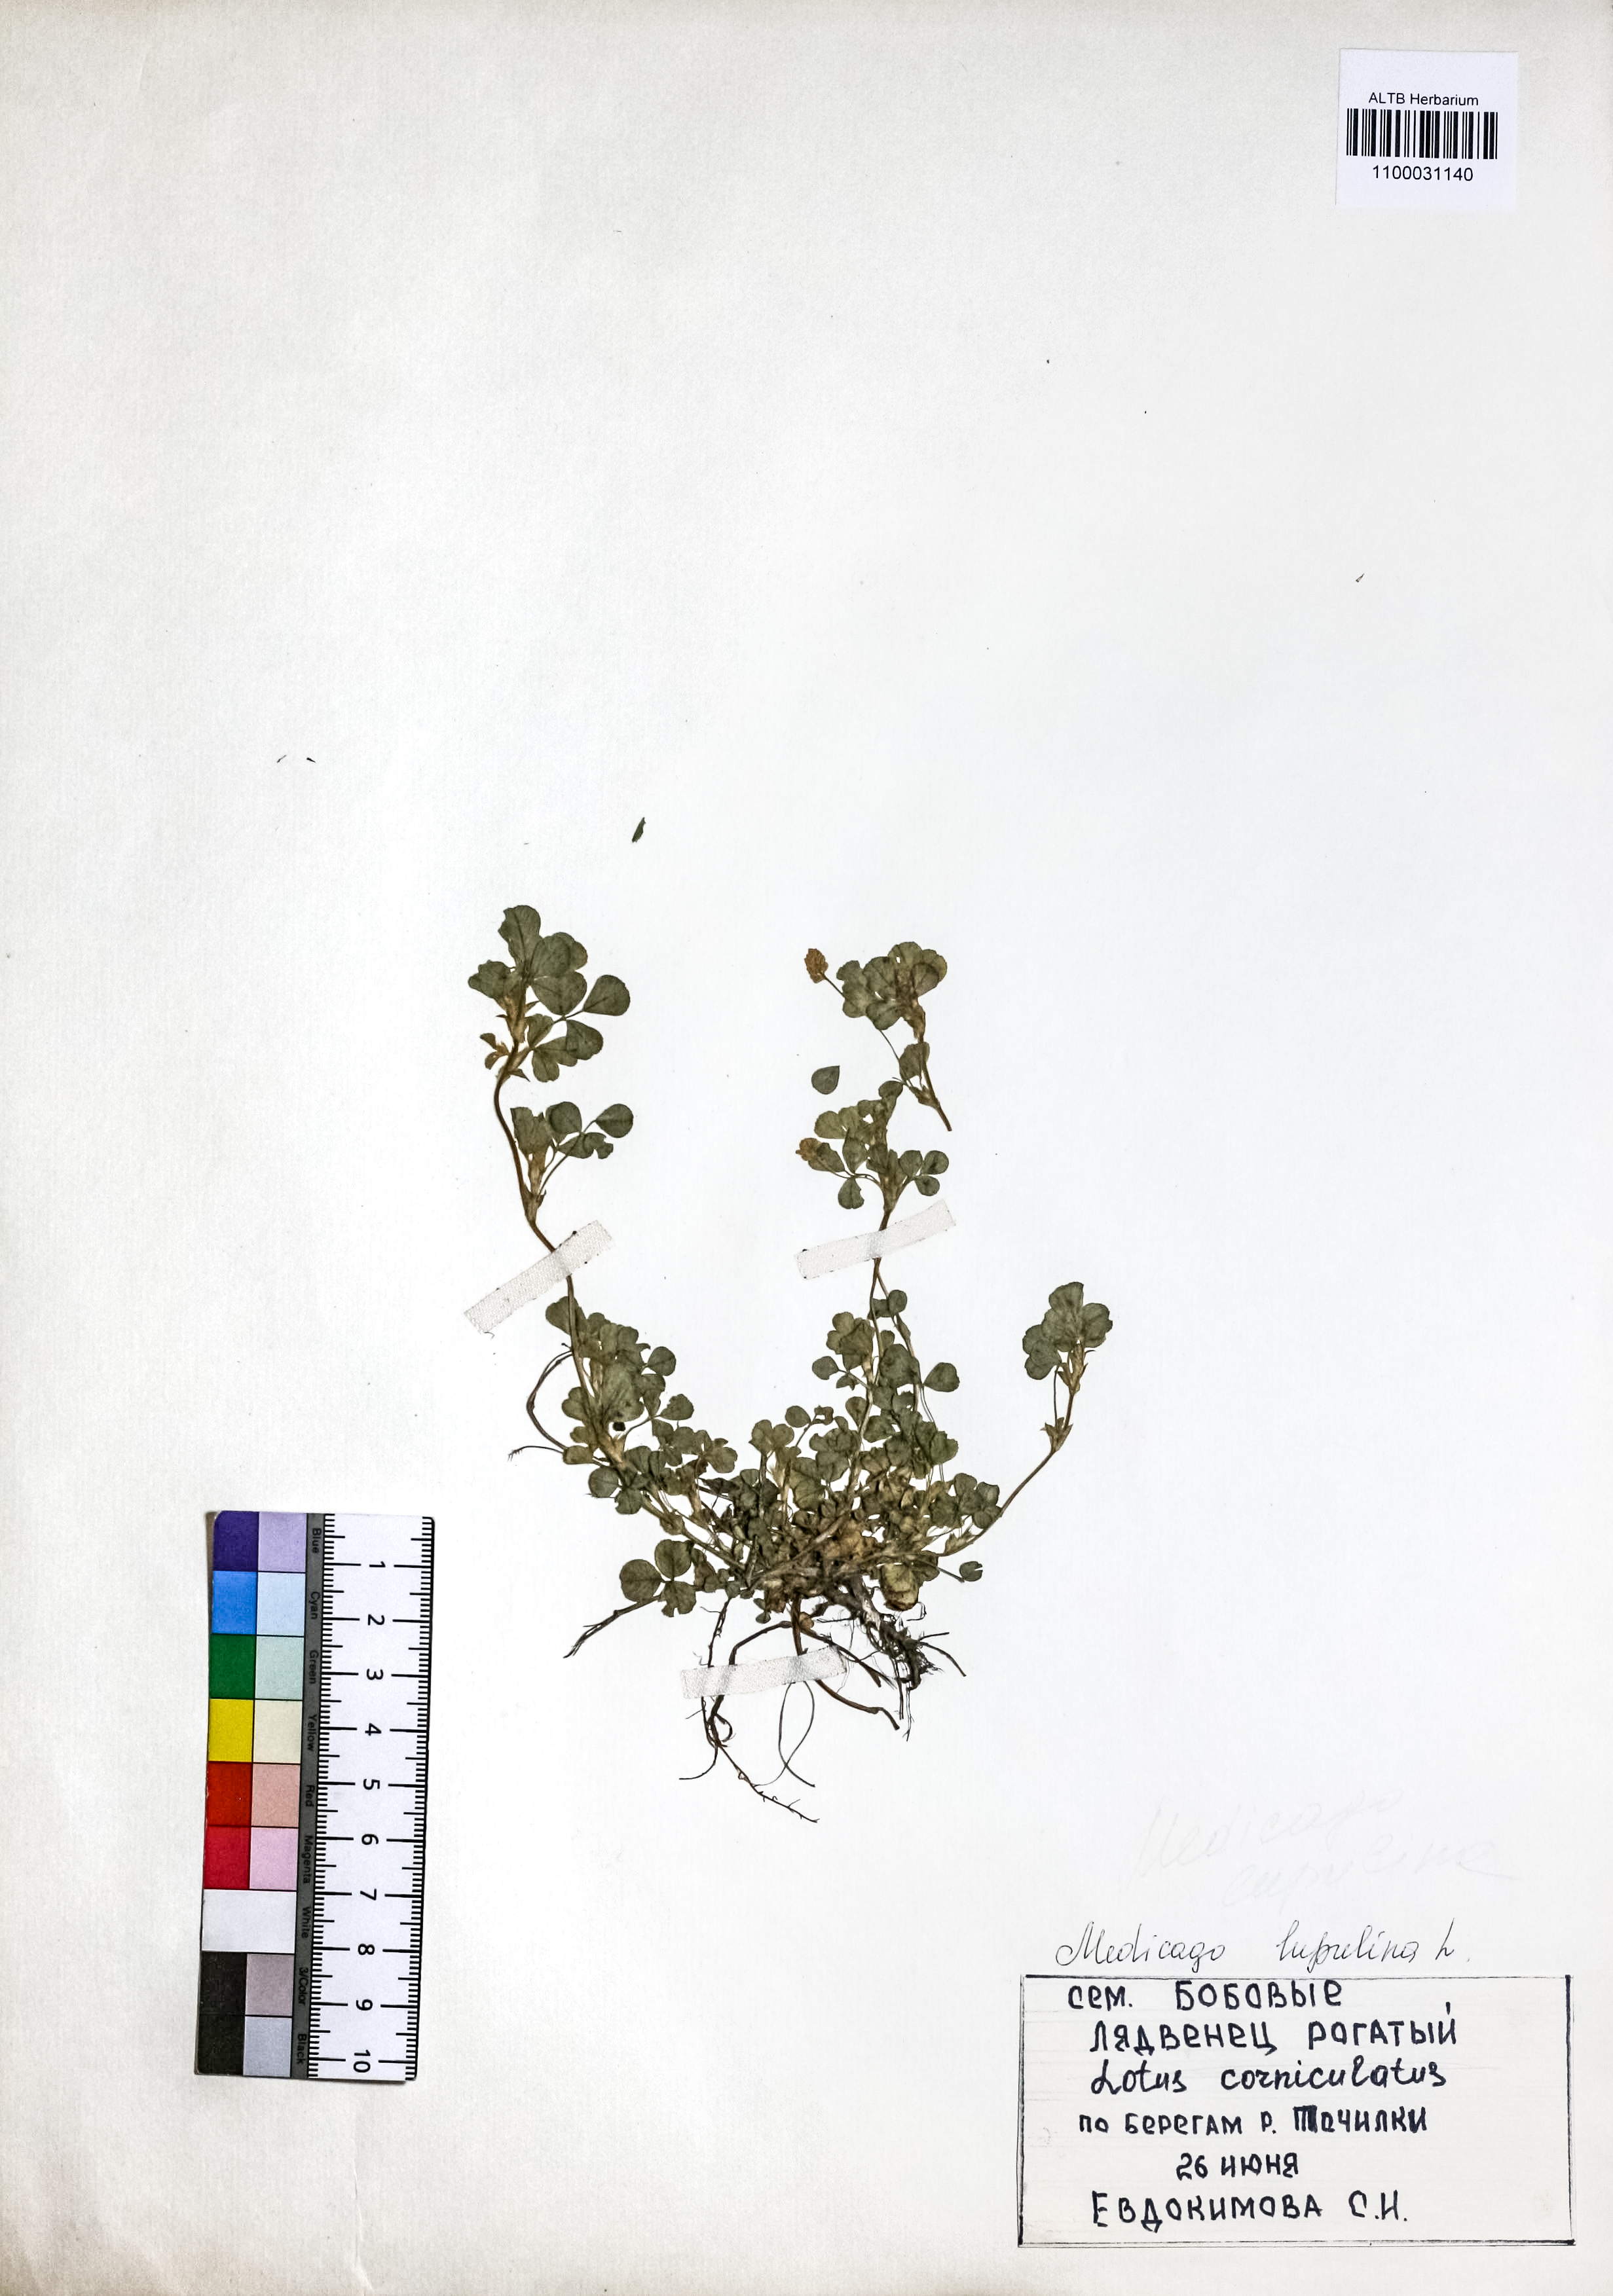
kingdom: Plantae
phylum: Tracheophyta
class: Magnoliopsida
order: Fabales
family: Fabaceae
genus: Medicago
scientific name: Medicago lupulina
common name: Black medick
